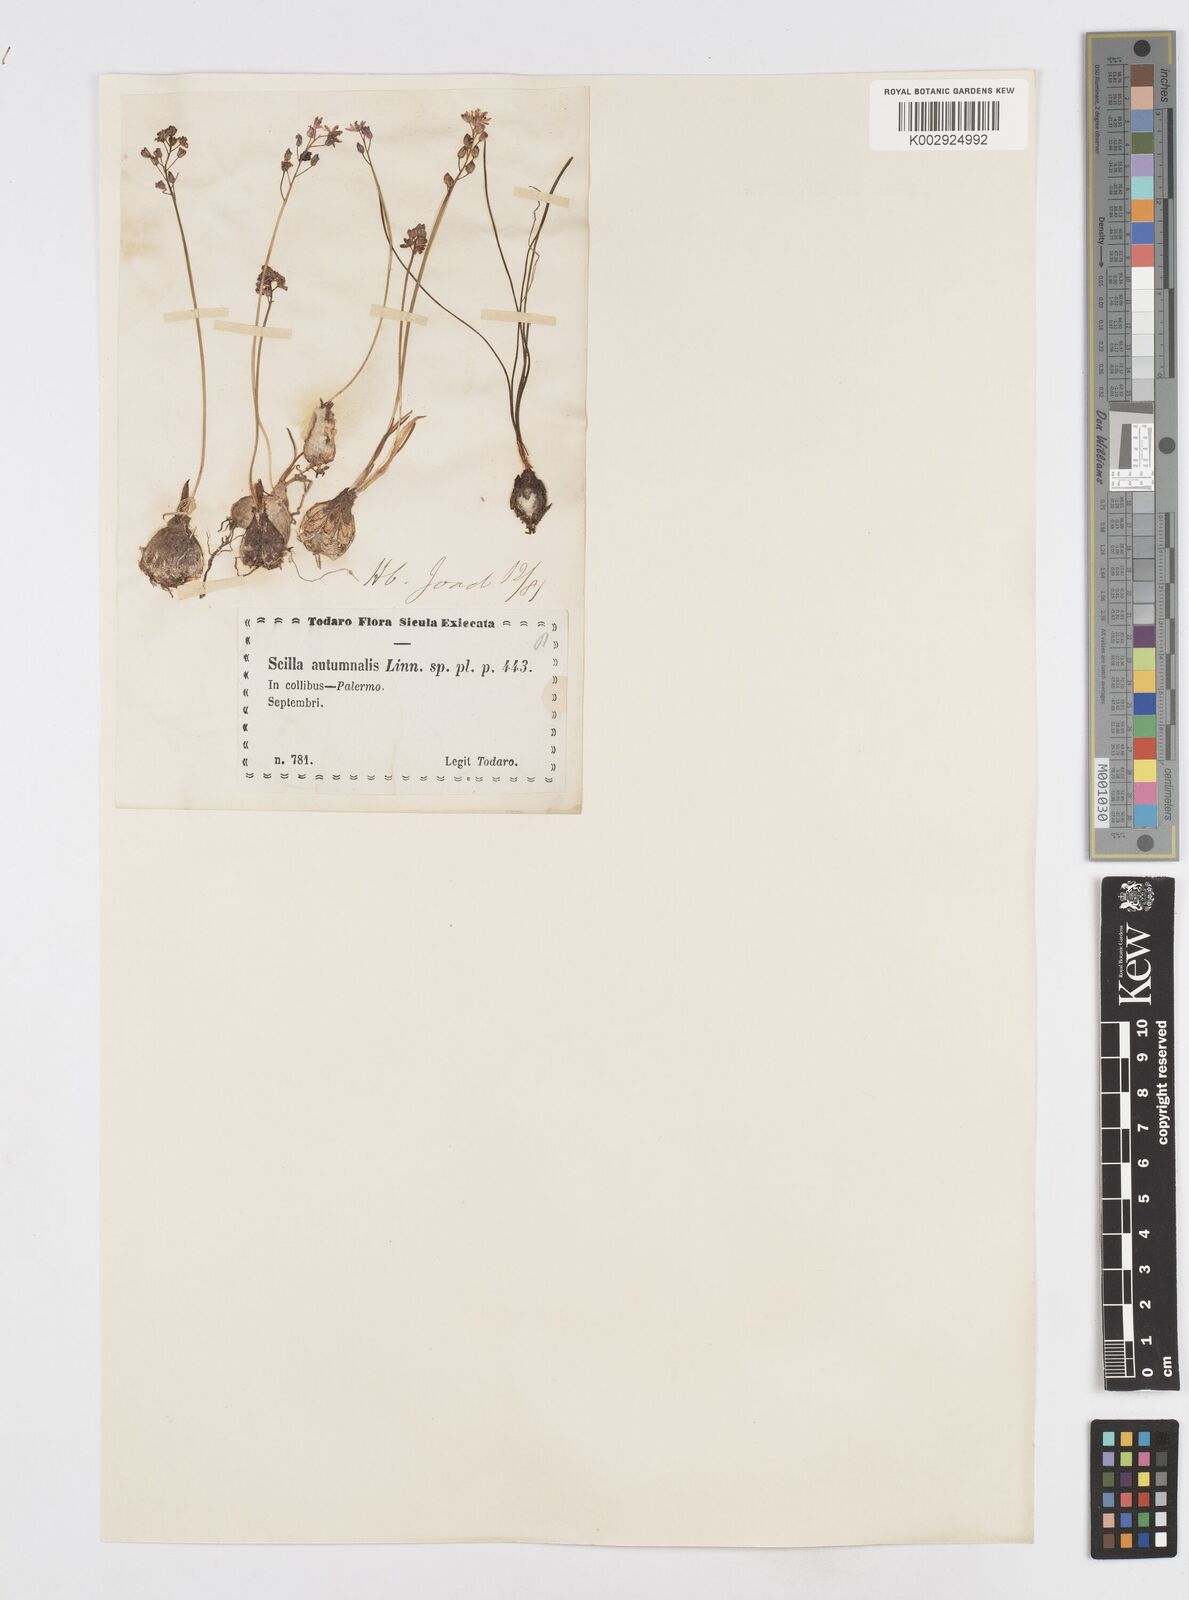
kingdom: Plantae
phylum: Tracheophyta
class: Liliopsida
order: Asparagales
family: Asparagaceae
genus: Prospero
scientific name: Prospero autumnale
